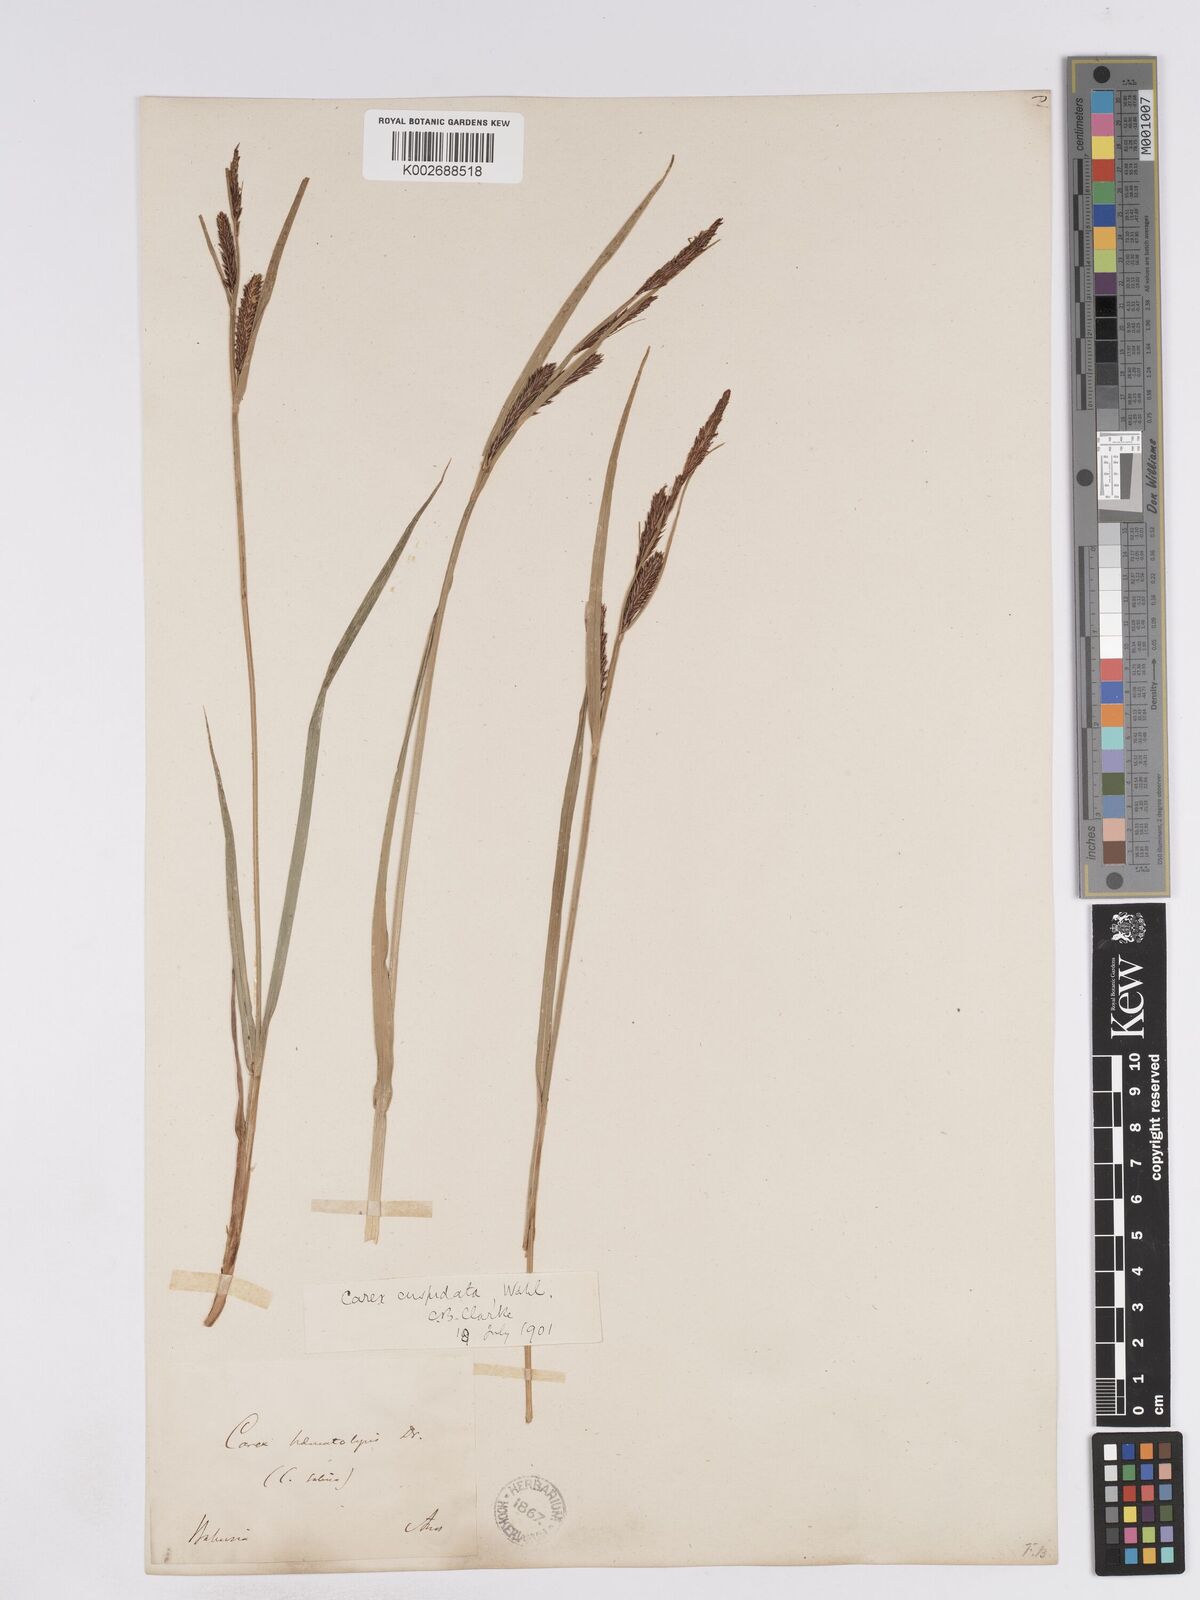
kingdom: Plantae
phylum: Tracheophyta
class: Liliopsida
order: Poales
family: Cyperaceae
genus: Carex
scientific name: Carex recta
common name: Estuarine sedge
